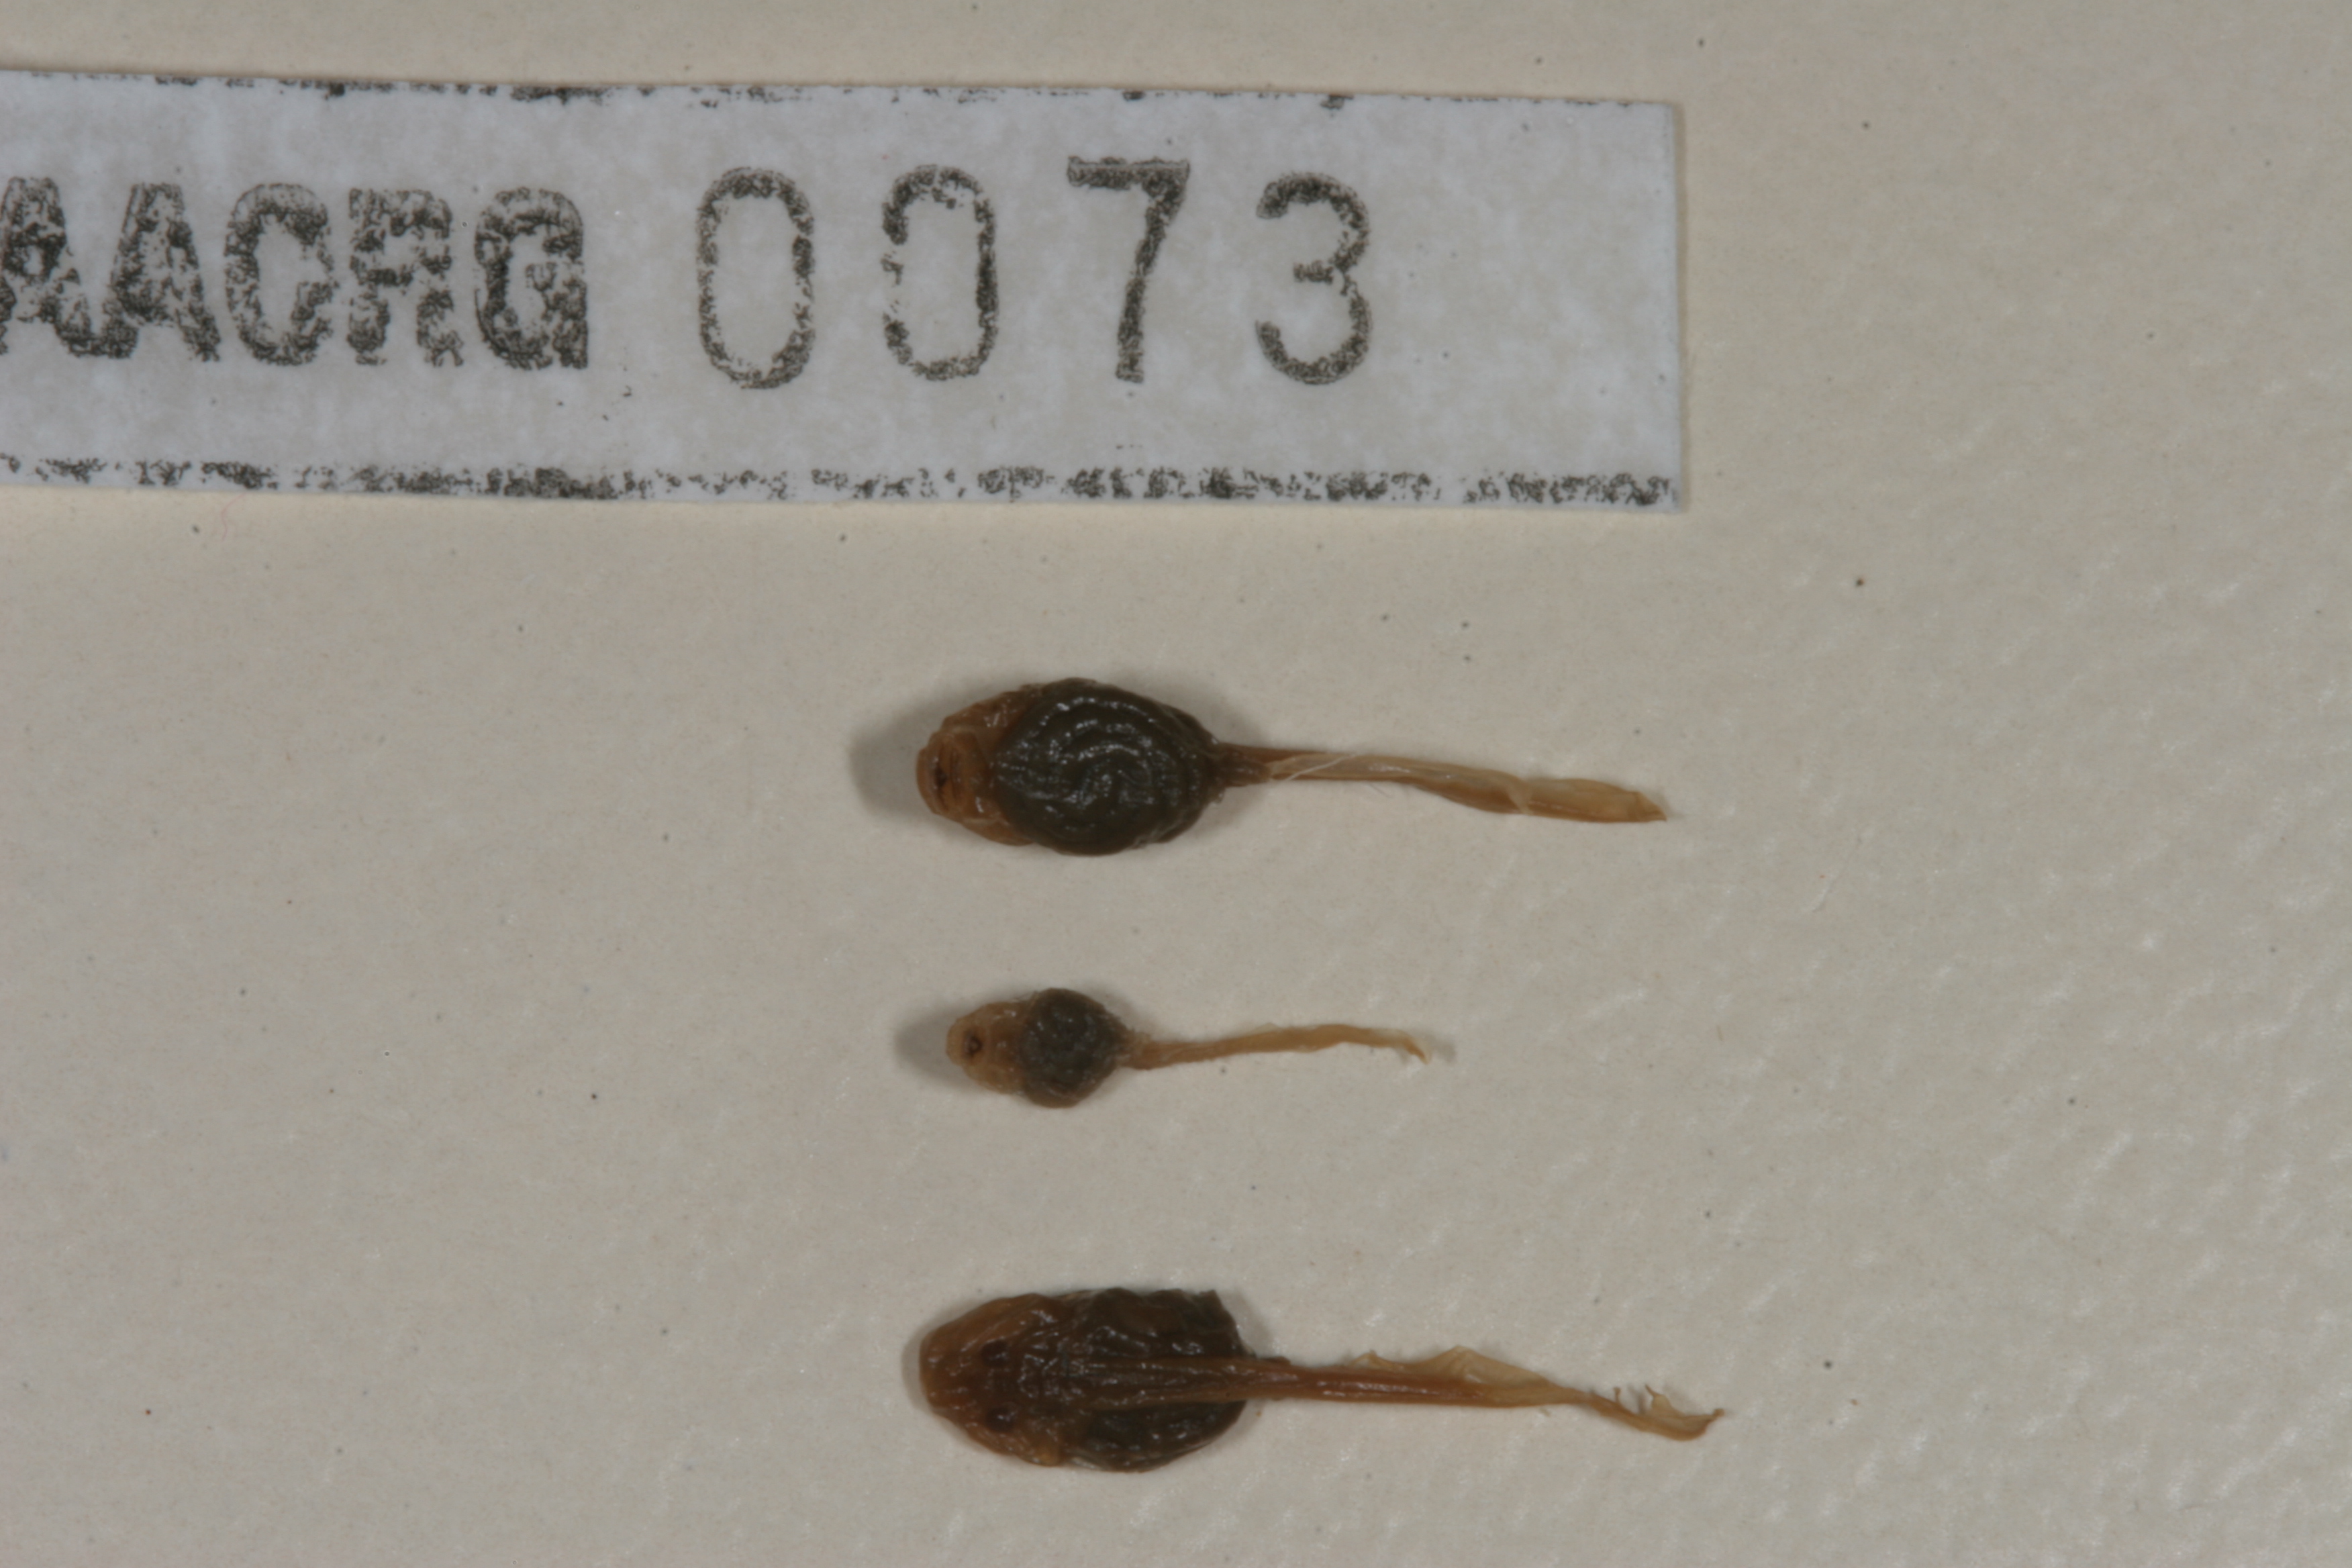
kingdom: Animalia
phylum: Chordata
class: Amphibia
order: Anura
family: Bufonidae
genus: Vandijkophrynus
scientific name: Vandijkophrynus amatolicus
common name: Amatola toad
